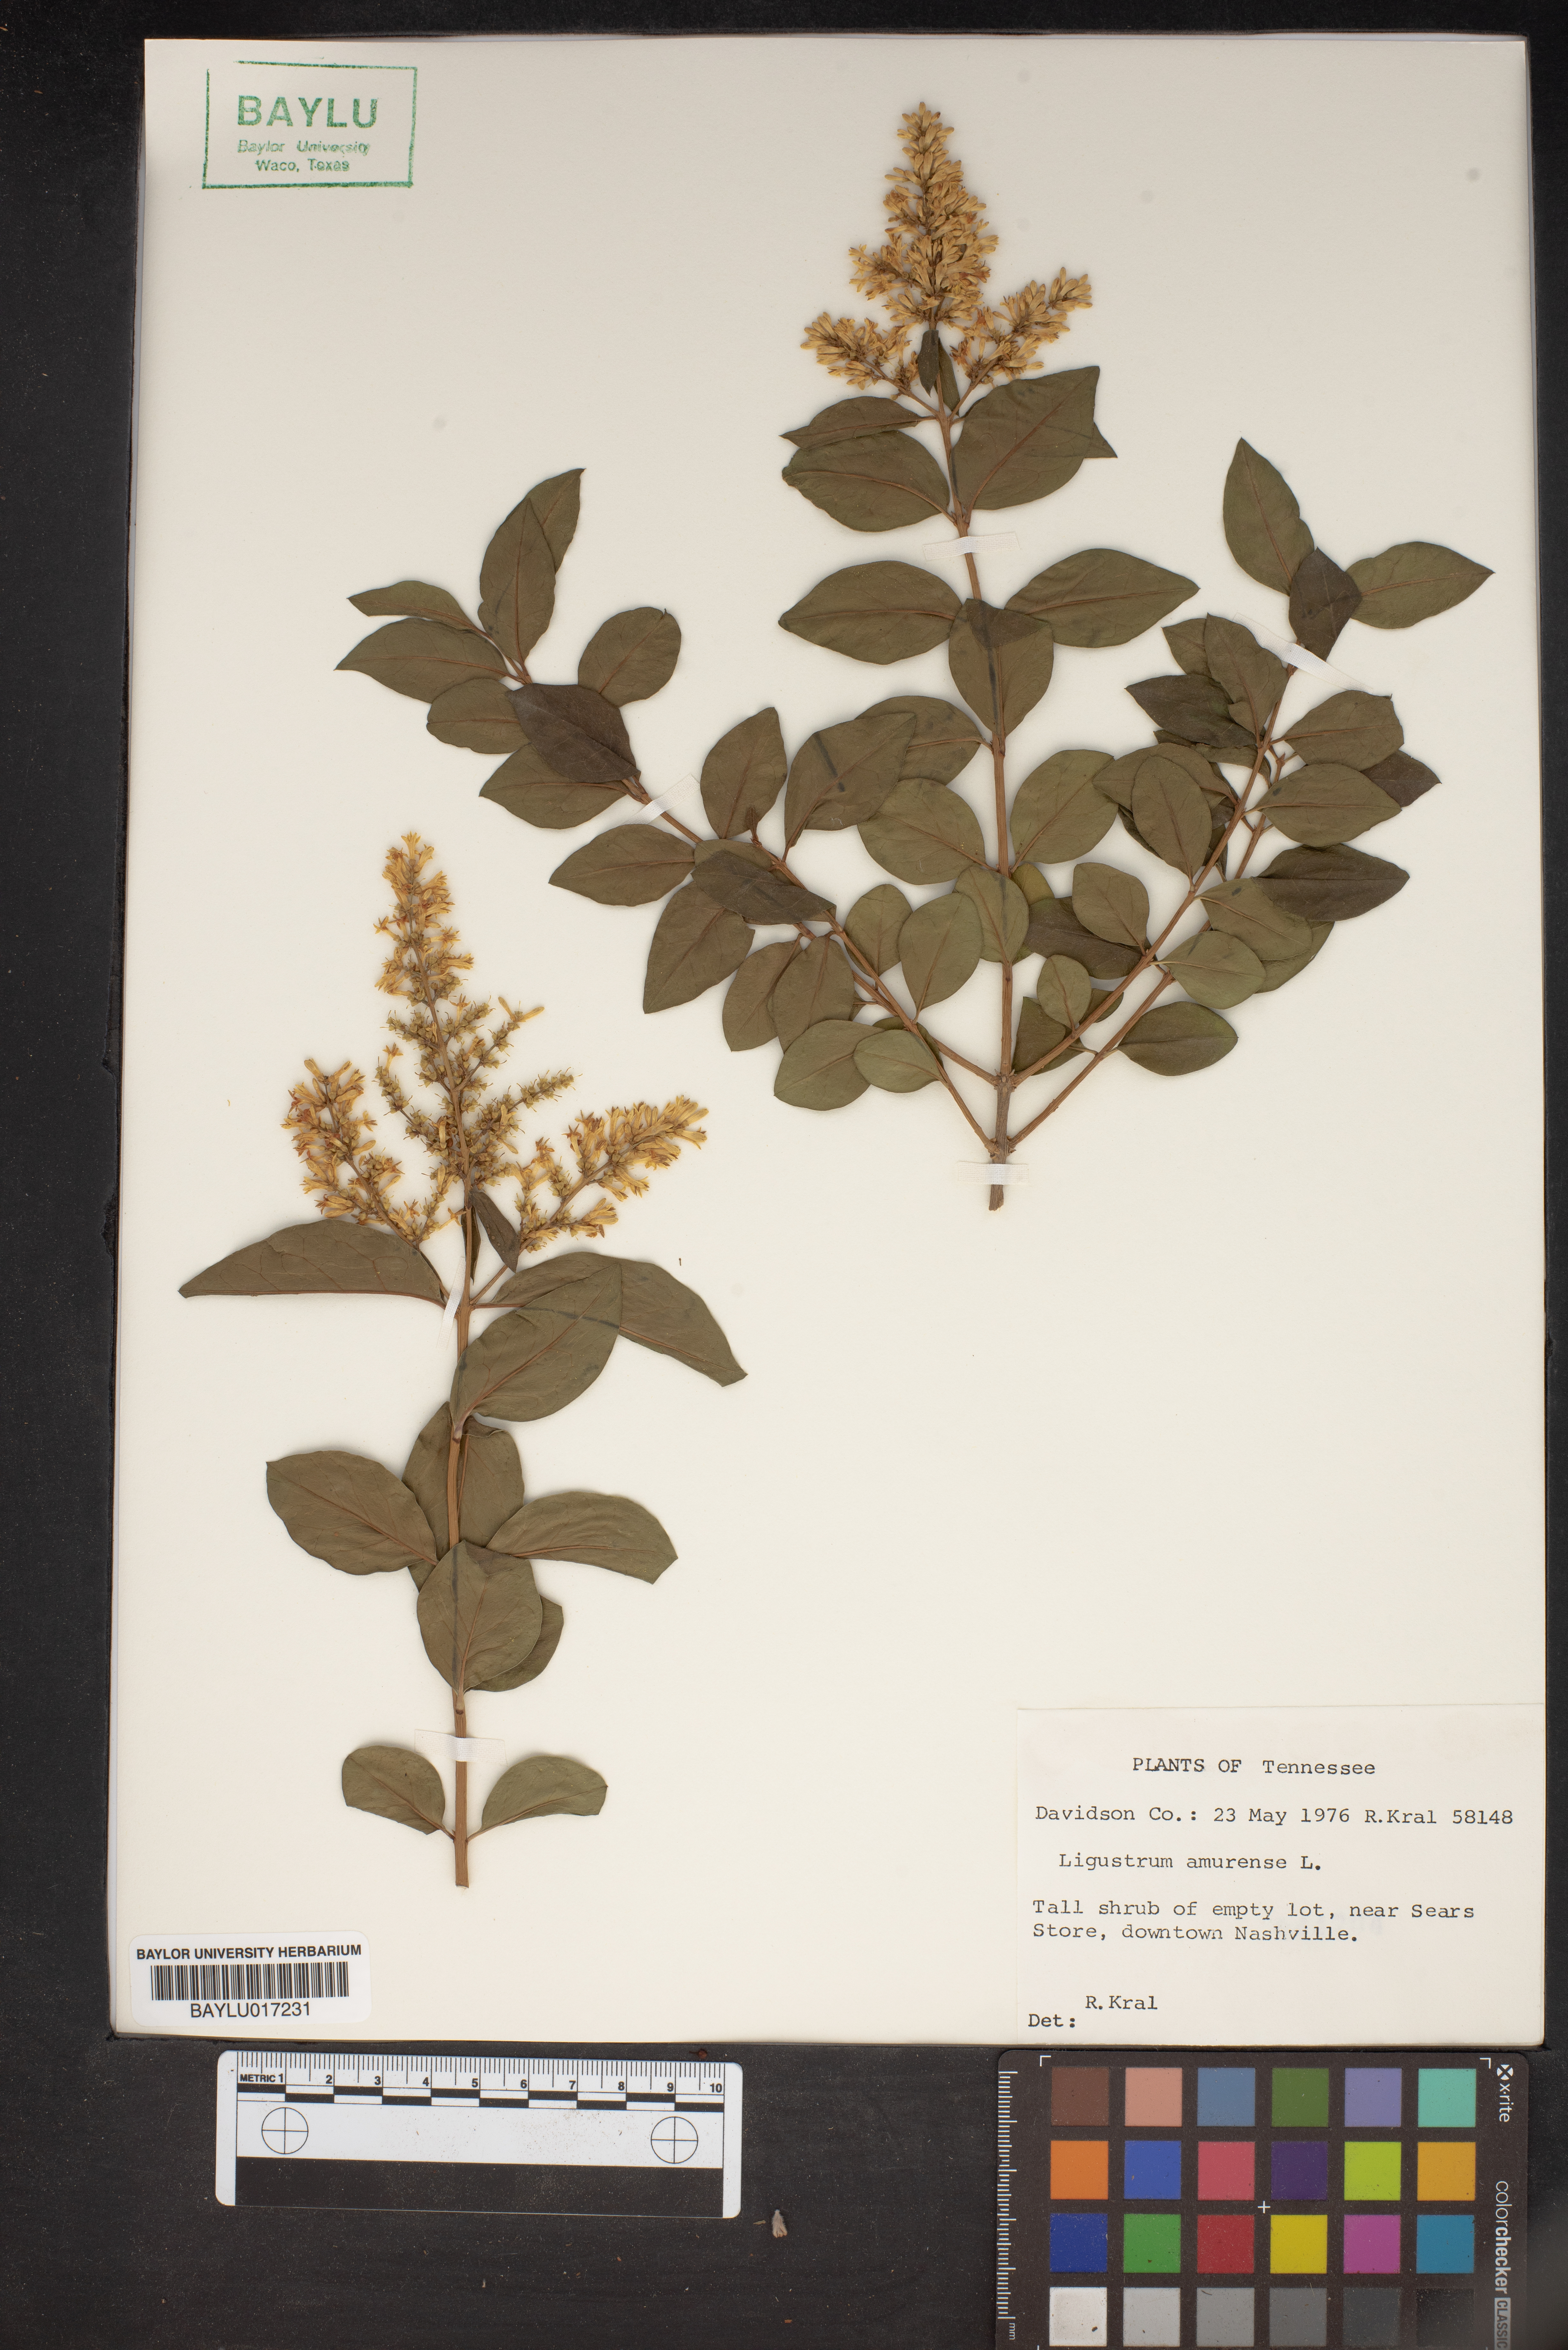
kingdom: Plantae
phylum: Tracheophyta
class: Magnoliopsida
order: Lamiales
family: Oleaceae
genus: Ligustrum
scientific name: Ligustrum obtusifolium
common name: Border privet
